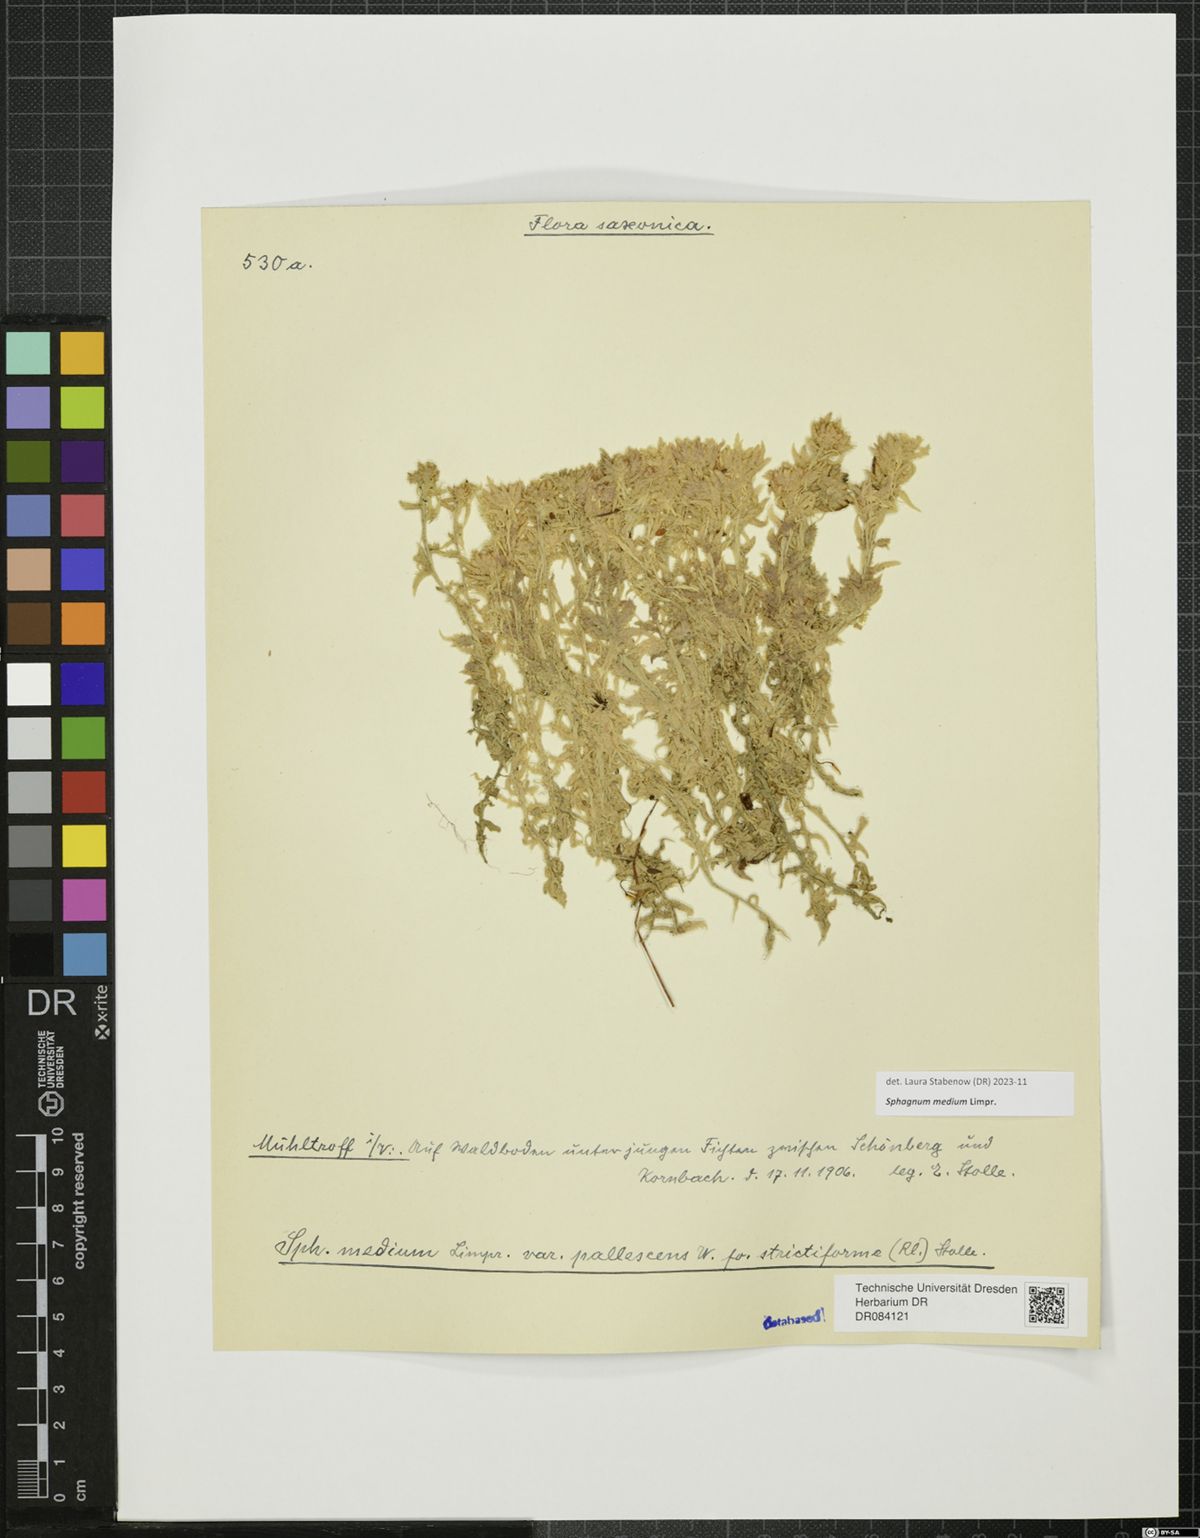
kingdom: Plantae
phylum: Bryophyta
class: Sphagnopsida
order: Sphagnales
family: Sphagnaceae
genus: Sphagnum
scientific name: Sphagnum medium
